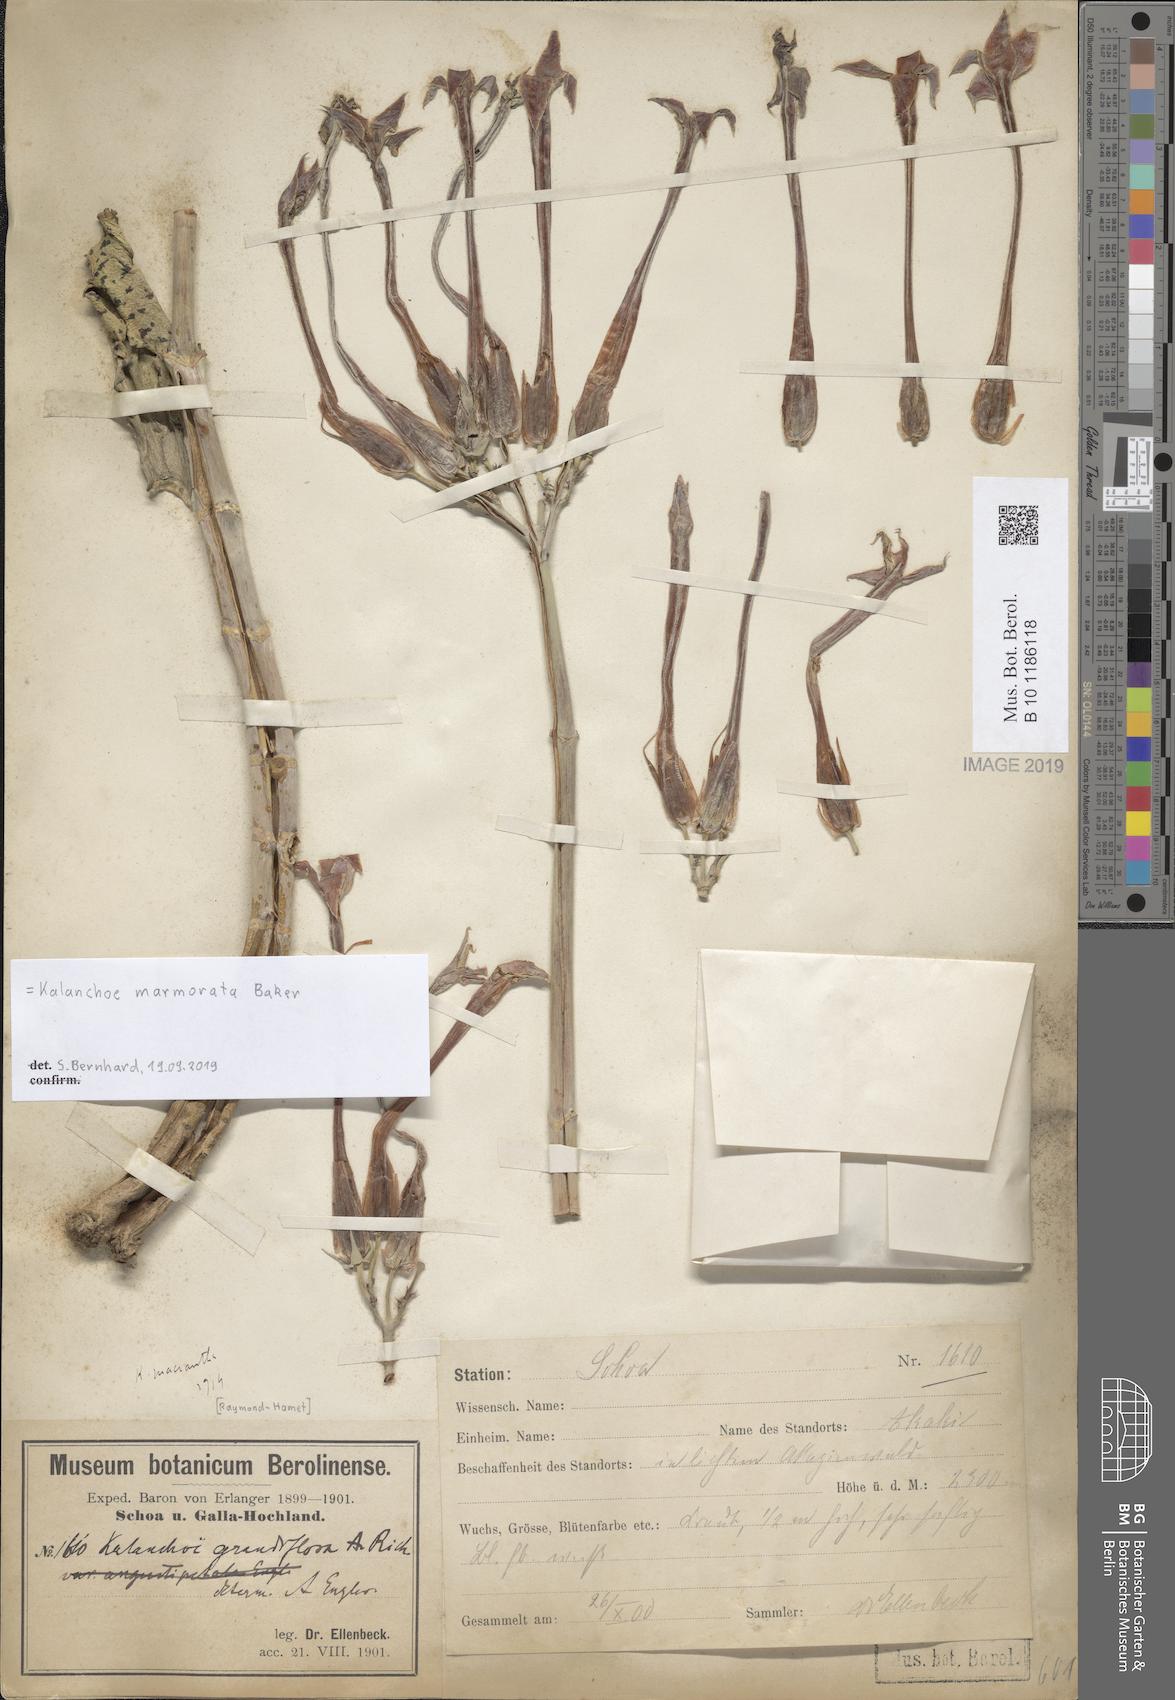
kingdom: Plantae
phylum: Tracheophyta
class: Magnoliopsida
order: Saxifragales
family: Crassulaceae
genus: Kalanchoe
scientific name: Kalanchoe marmorata
